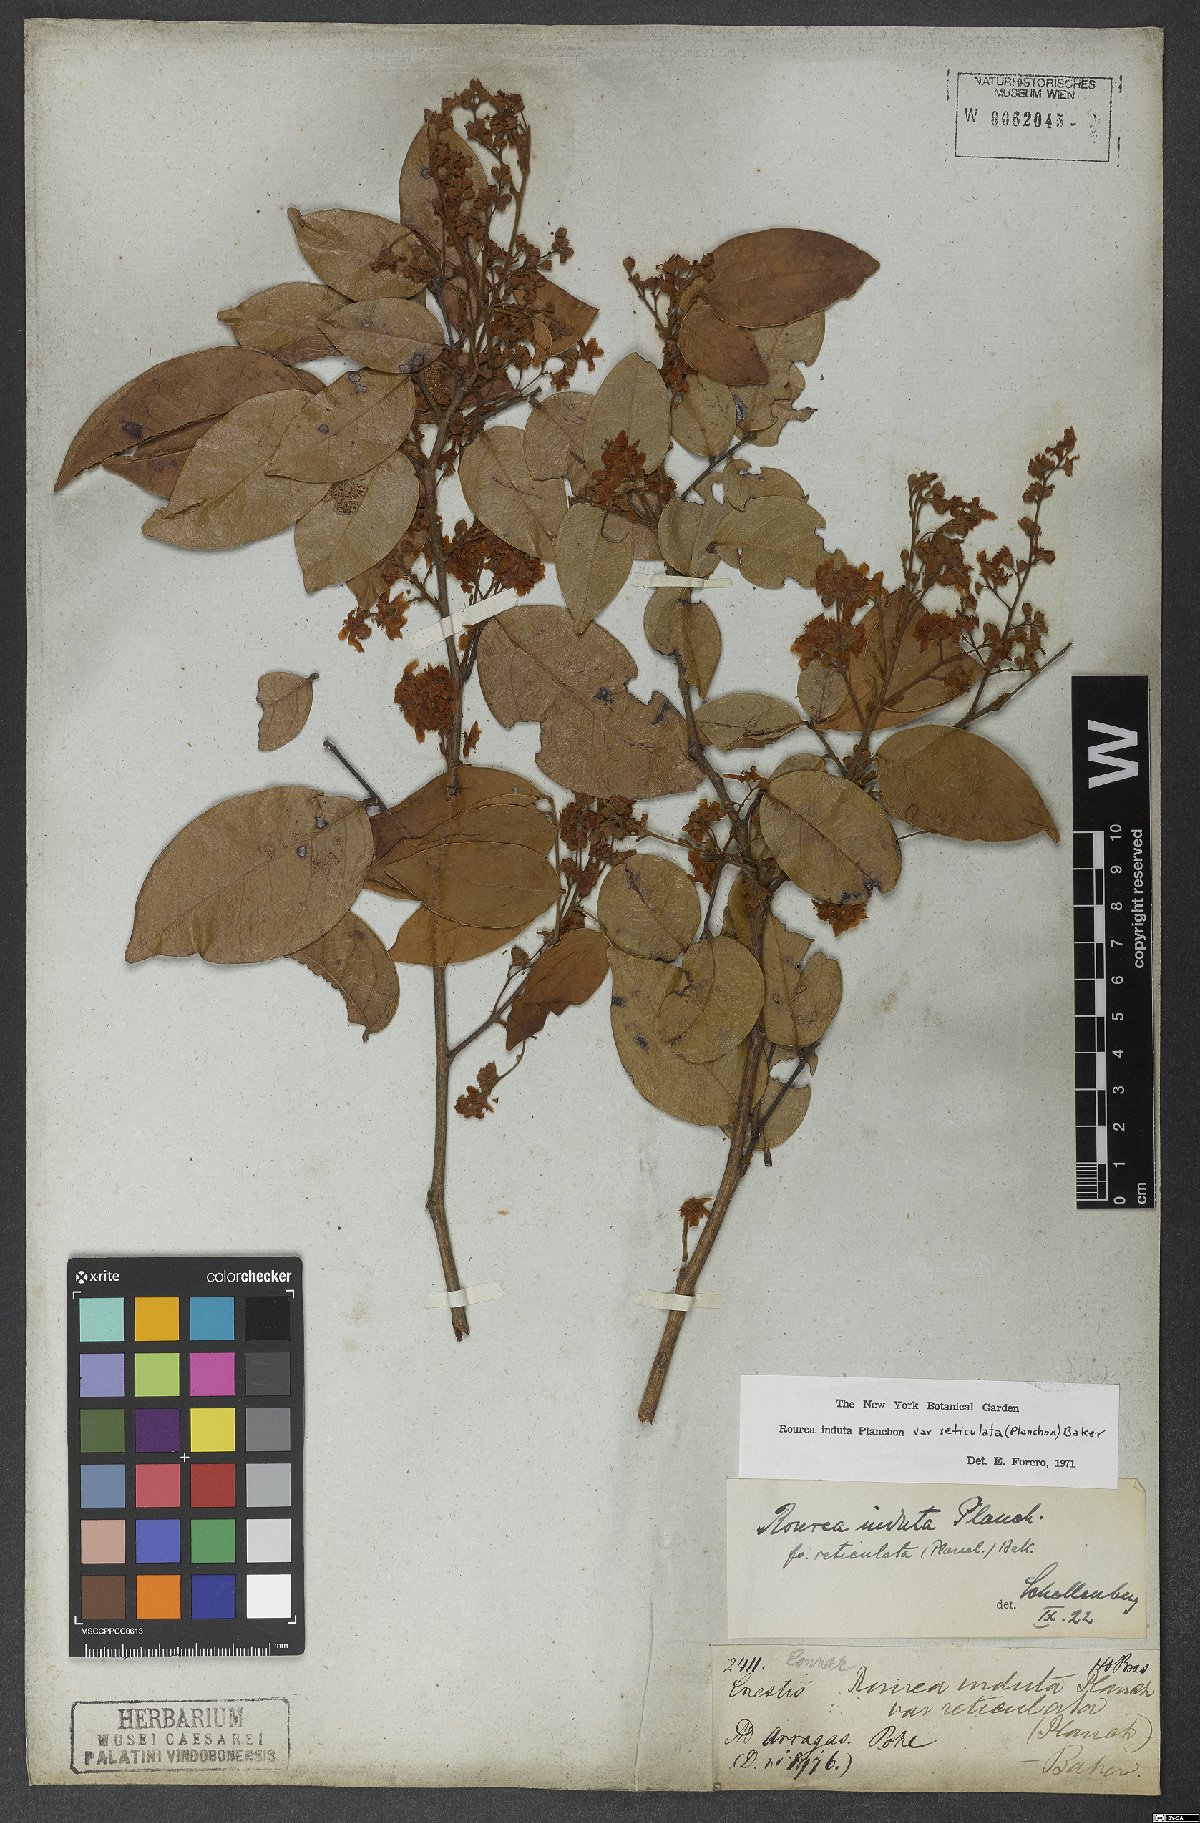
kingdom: Plantae
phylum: Tracheophyta
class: Magnoliopsida
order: Oxalidales
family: Connaraceae
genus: Rourea
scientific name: Rourea induta
